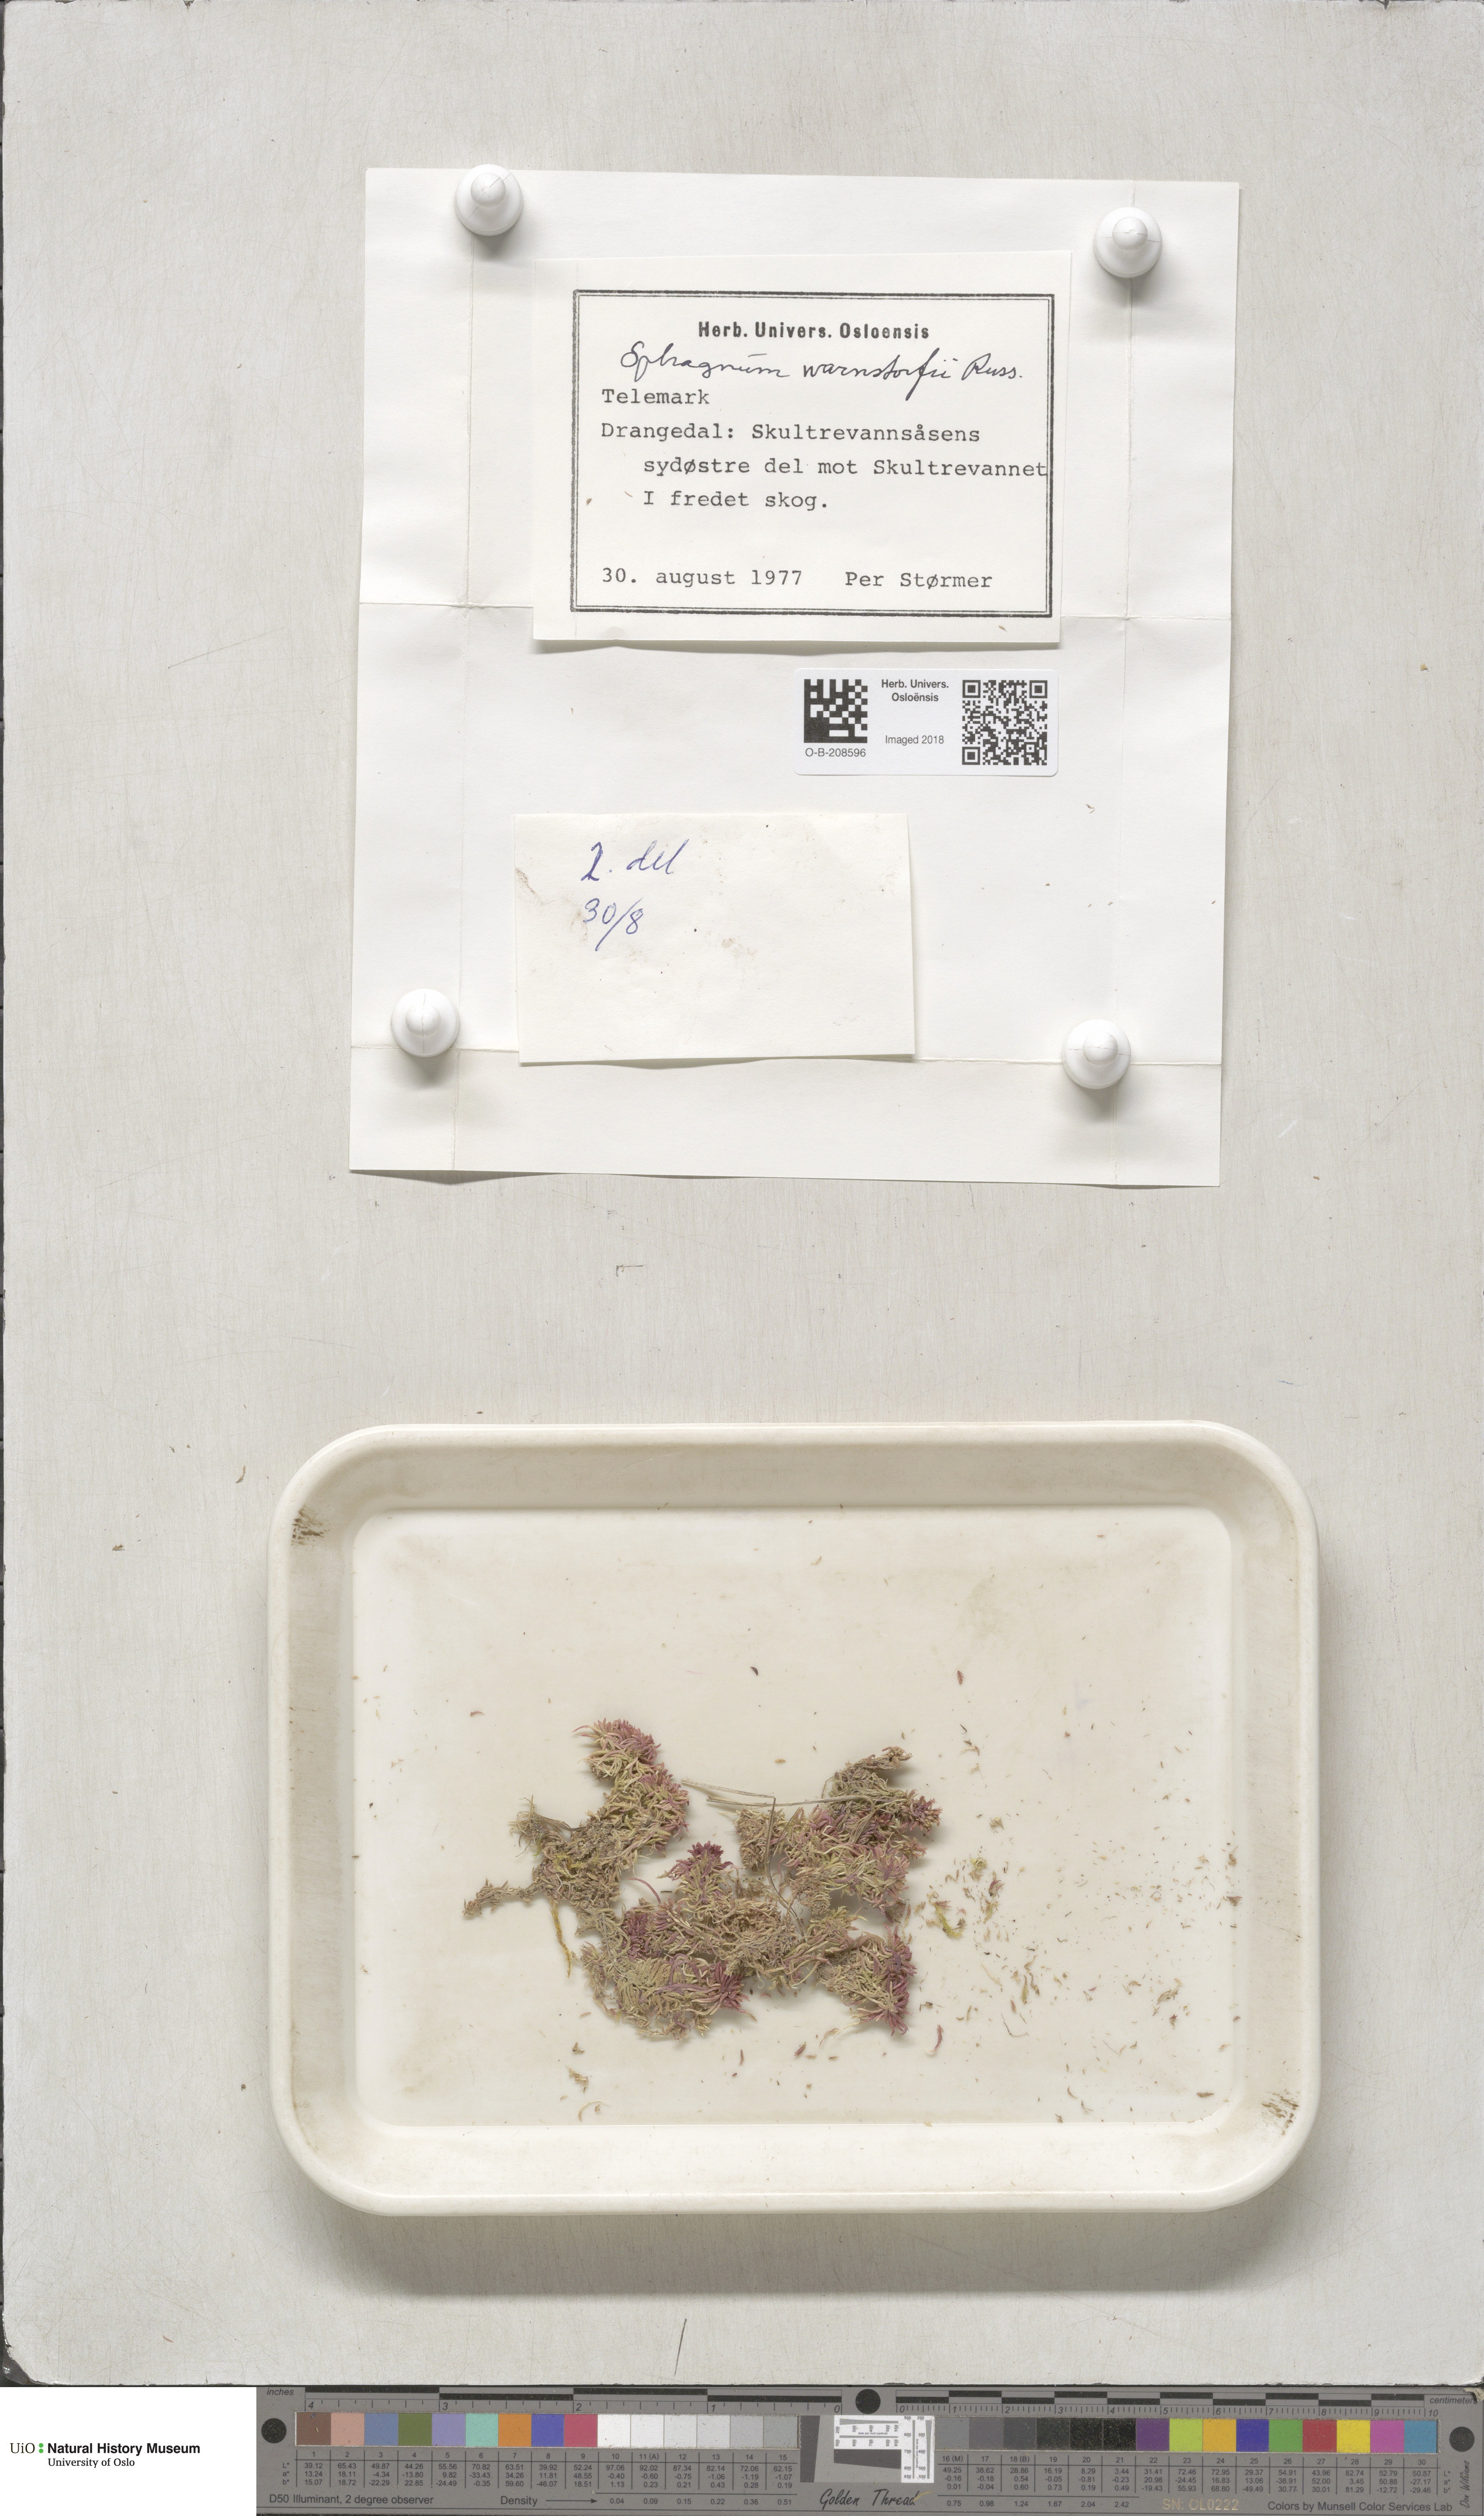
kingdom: Plantae
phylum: Bryophyta
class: Sphagnopsida
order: Sphagnales
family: Sphagnaceae
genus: Sphagnum
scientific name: Sphagnum warnstorfii
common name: Warnstorf's peat moss
